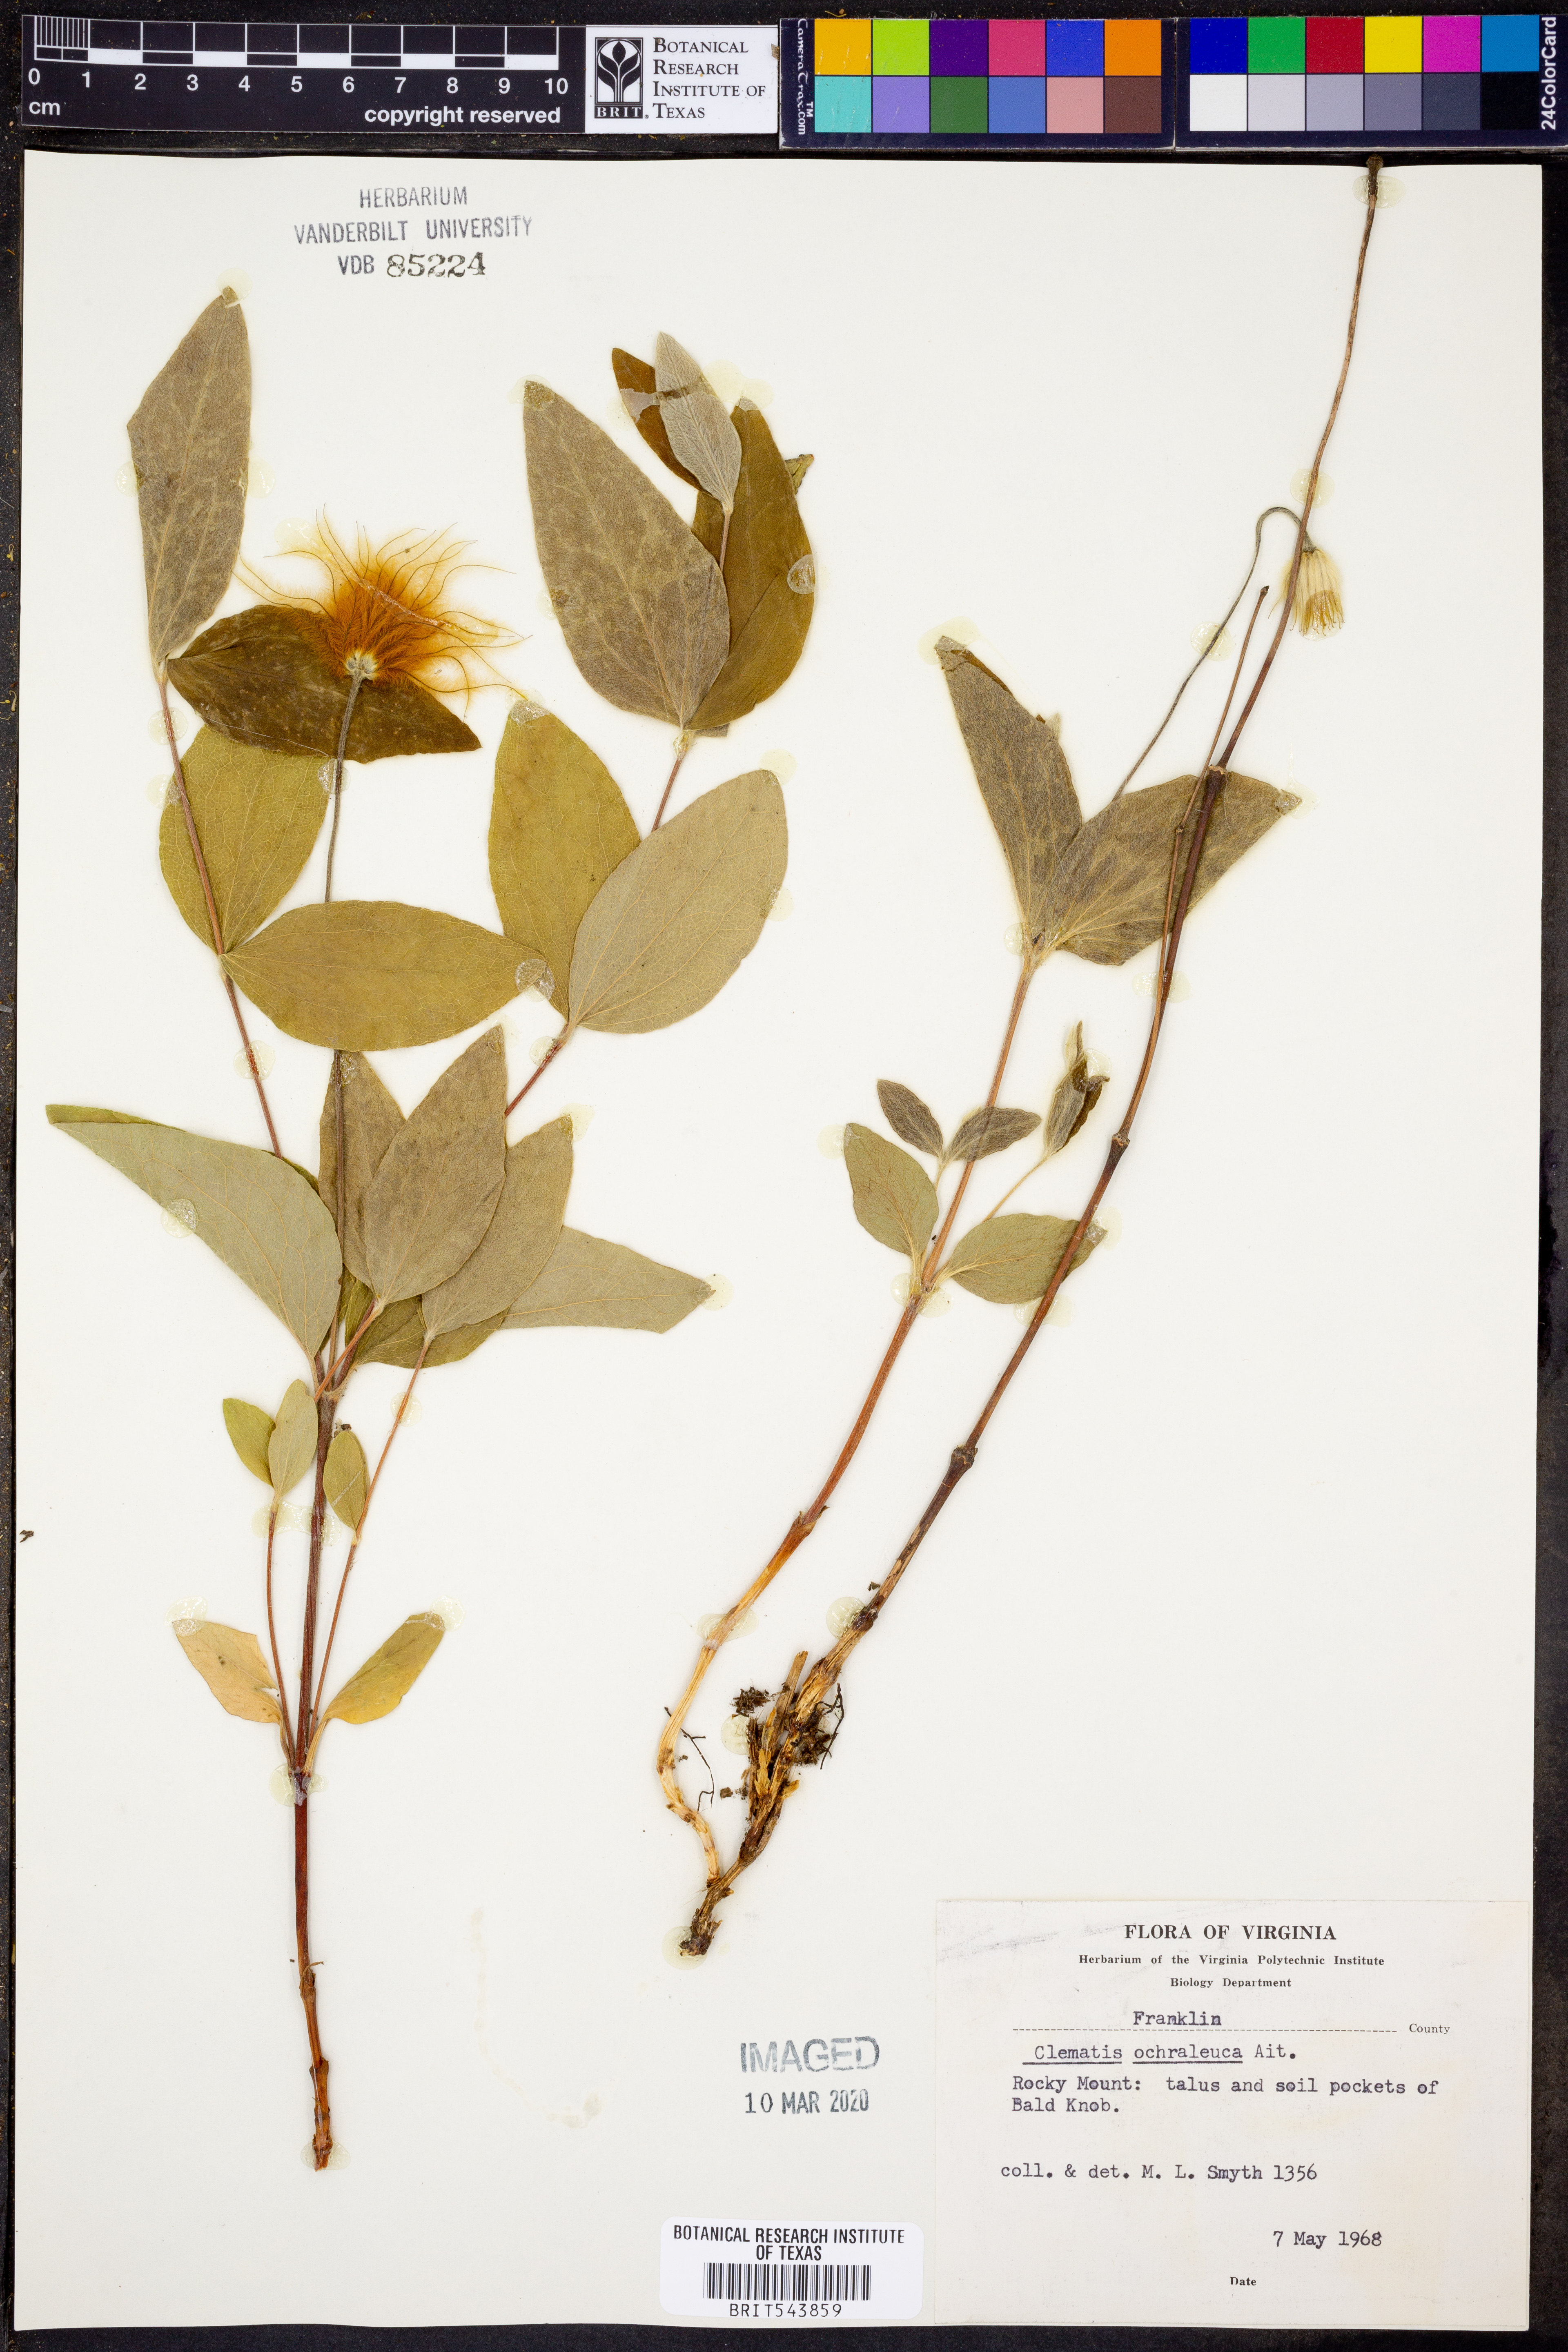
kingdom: Plantae
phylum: Tracheophyta
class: Magnoliopsida
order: Ranunculales
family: Ranunculaceae
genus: Clematis
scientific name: Clematis ochroleuca
